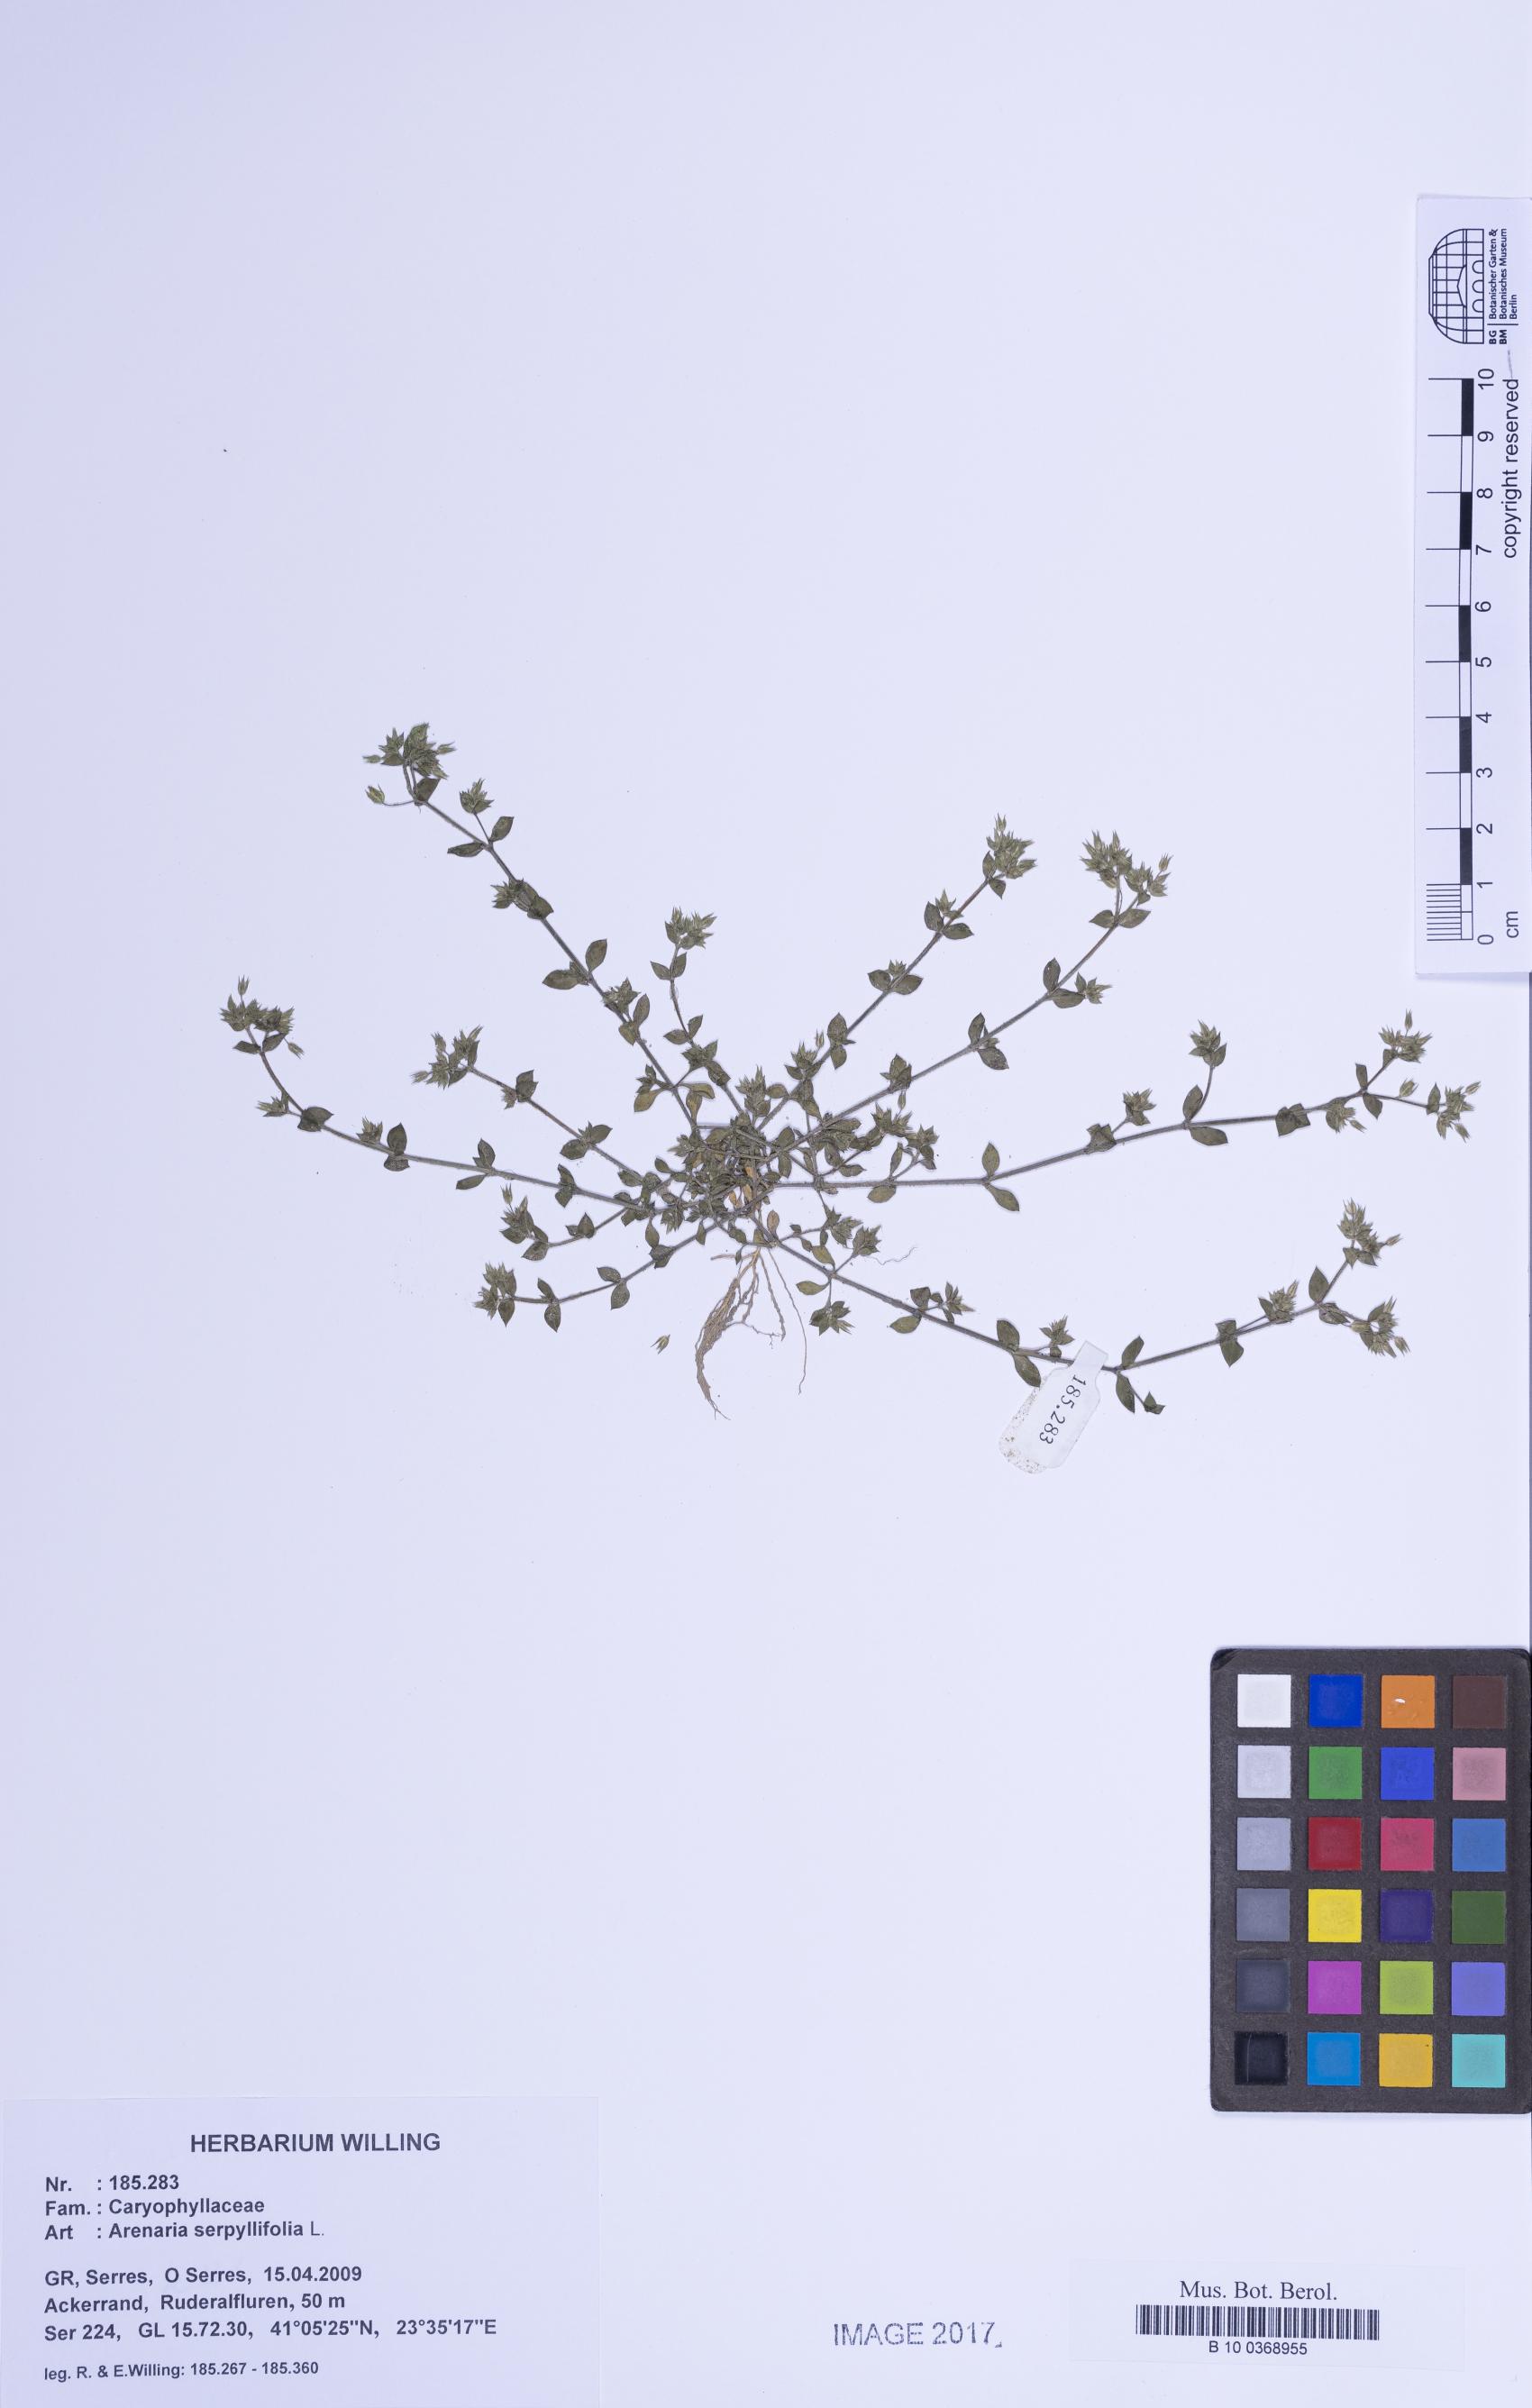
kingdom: Plantae
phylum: Tracheophyta
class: Magnoliopsida
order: Caryophyllales
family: Caryophyllaceae
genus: Arenaria
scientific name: Arenaria serpyllifolia
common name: Thyme-leaved sandwort
